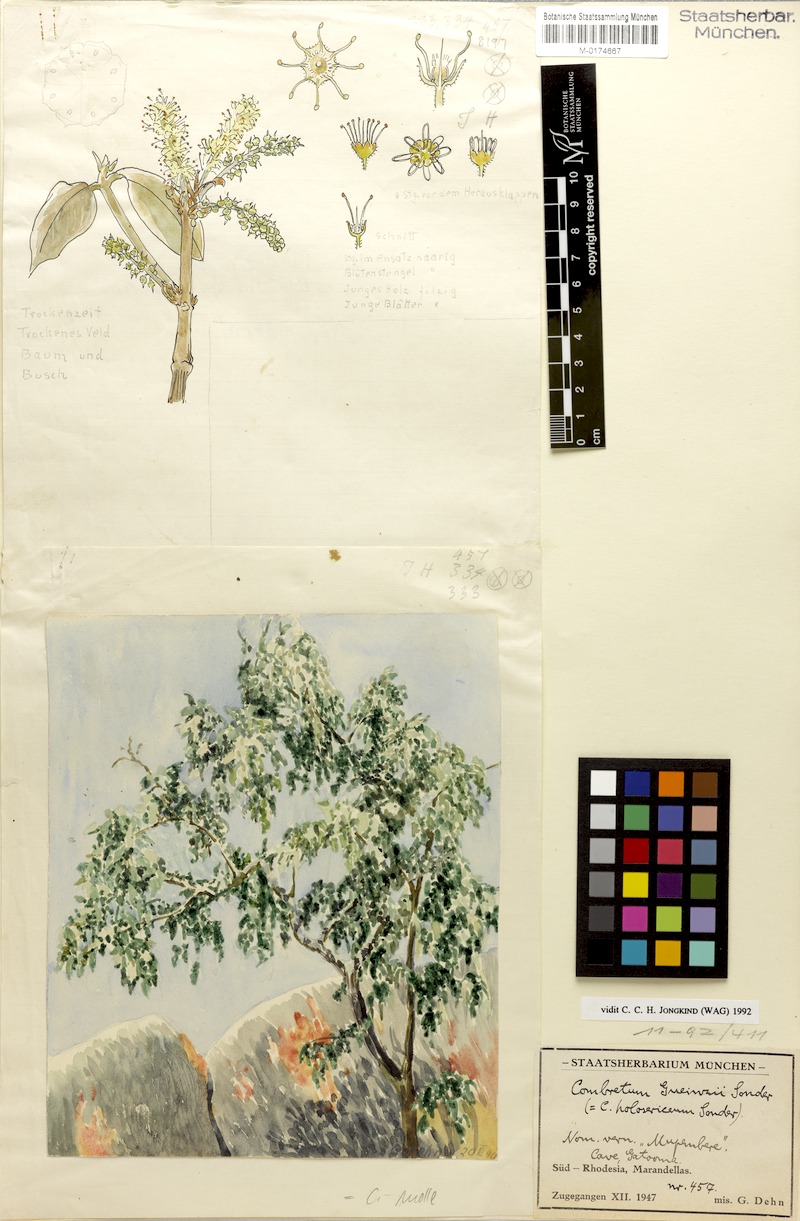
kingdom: Plantae
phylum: Tracheophyta
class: Magnoliopsida
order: Myrtales
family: Combretaceae
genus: Combretum
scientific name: Combretum molle
